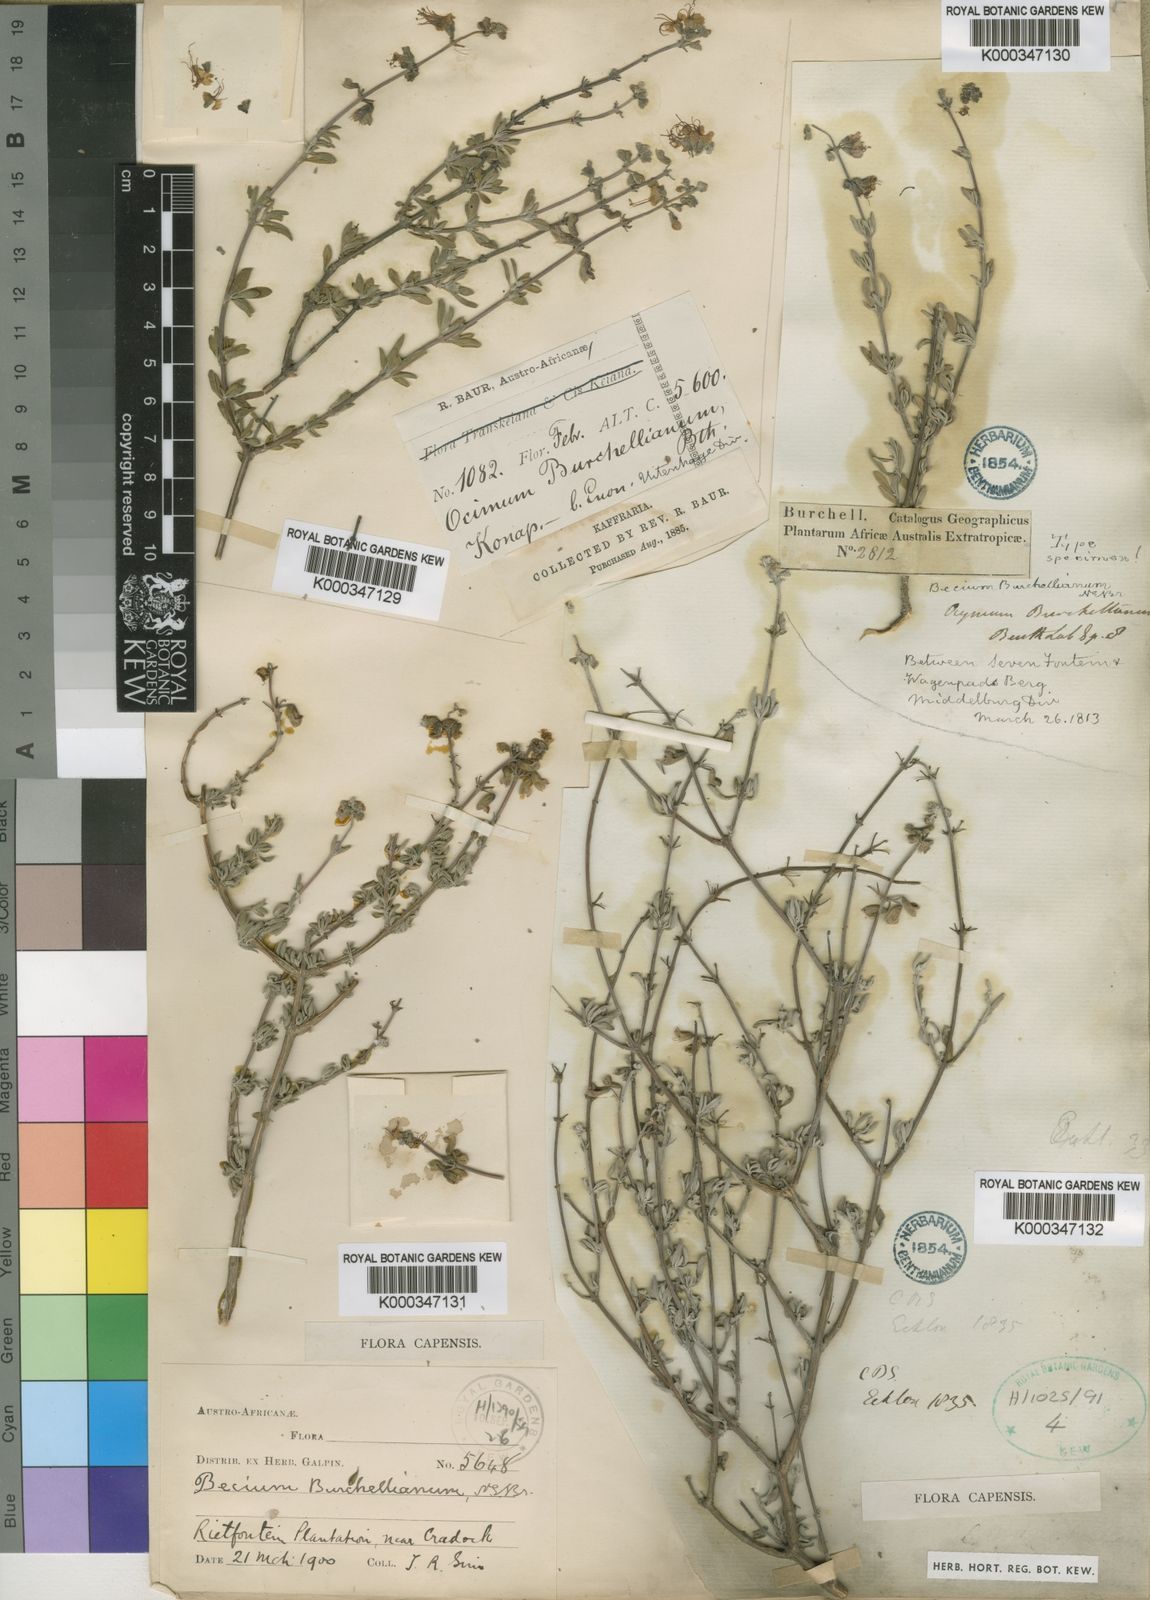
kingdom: Plantae
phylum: Tracheophyta
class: Magnoliopsida
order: Lamiales
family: Lamiaceae
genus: Ocimum
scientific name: Ocimum burchellianum
